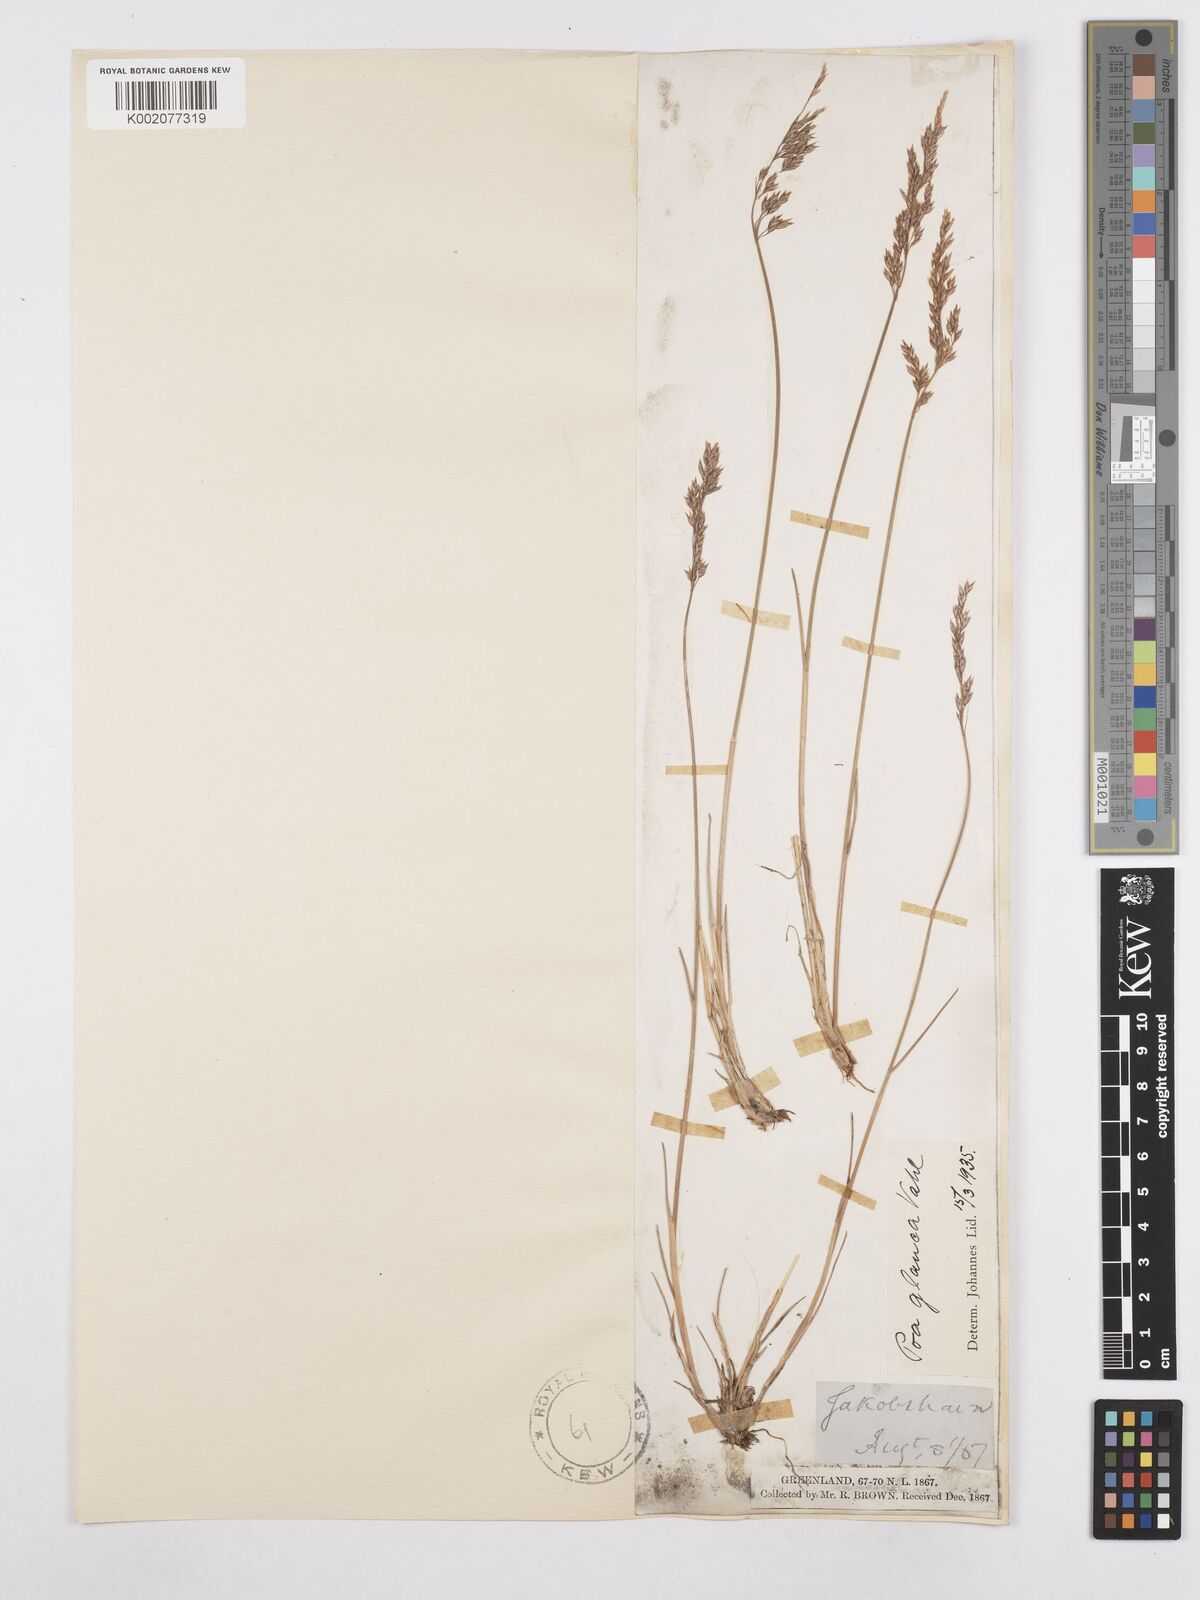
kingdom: Plantae
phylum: Tracheophyta
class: Liliopsida
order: Poales
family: Poaceae
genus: Poa
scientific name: Poa glauca
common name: Glaucous bluegrass
